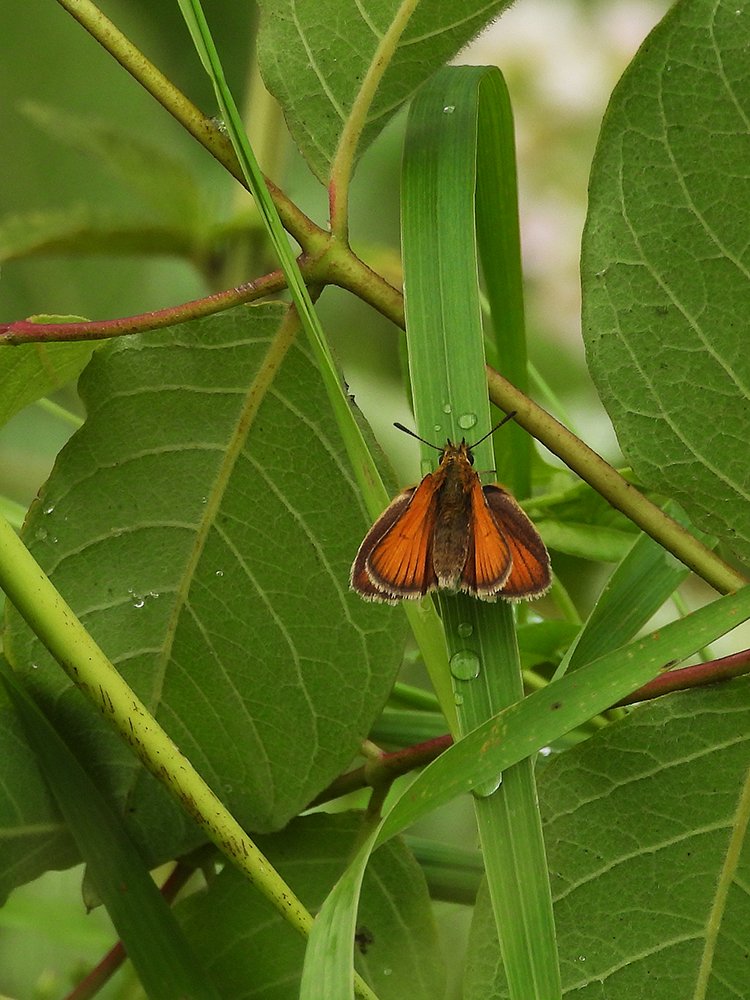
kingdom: Animalia
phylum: Arthropoda
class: Insecta
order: Lepidoptera
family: Hesperiidae
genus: Thymelicus
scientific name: Thymelicus lineola
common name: European Skipper
